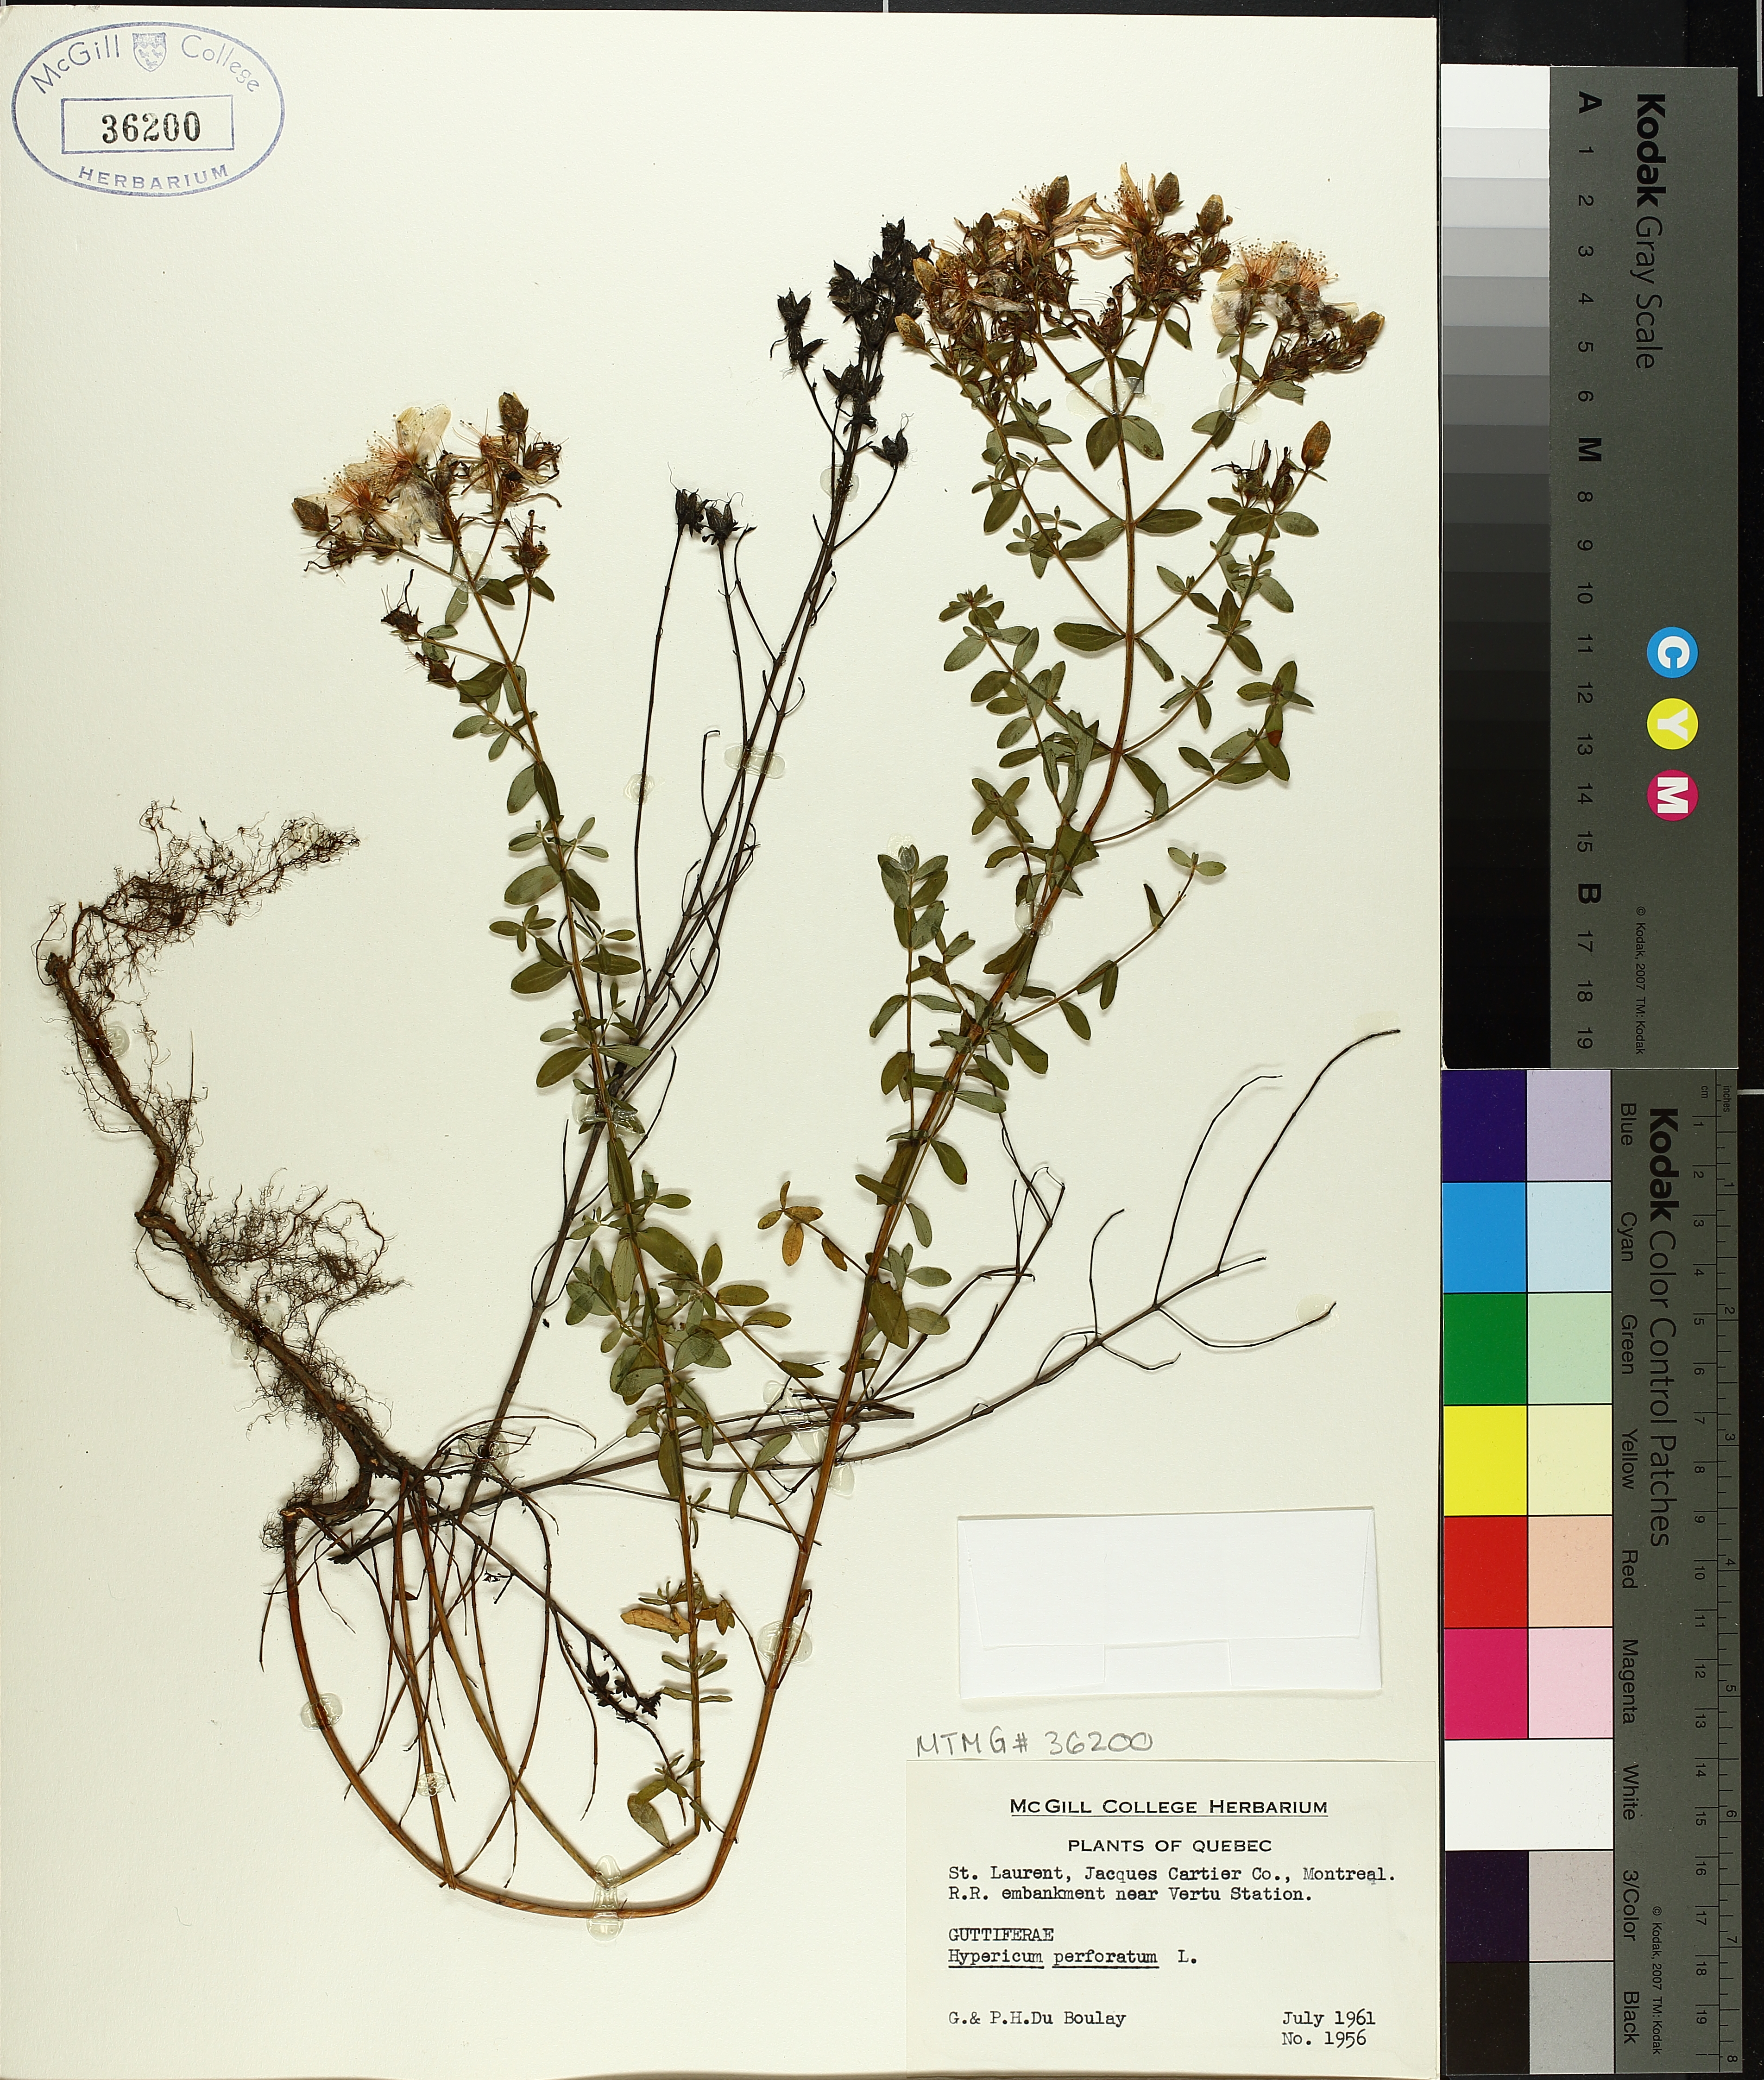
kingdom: Plantae
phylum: Tracheophyta
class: Magnoliopsida
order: Malpighiales
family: Hypericaceae
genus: Hypericum
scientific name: Hypericum perforatum
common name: Common st. johnswort
